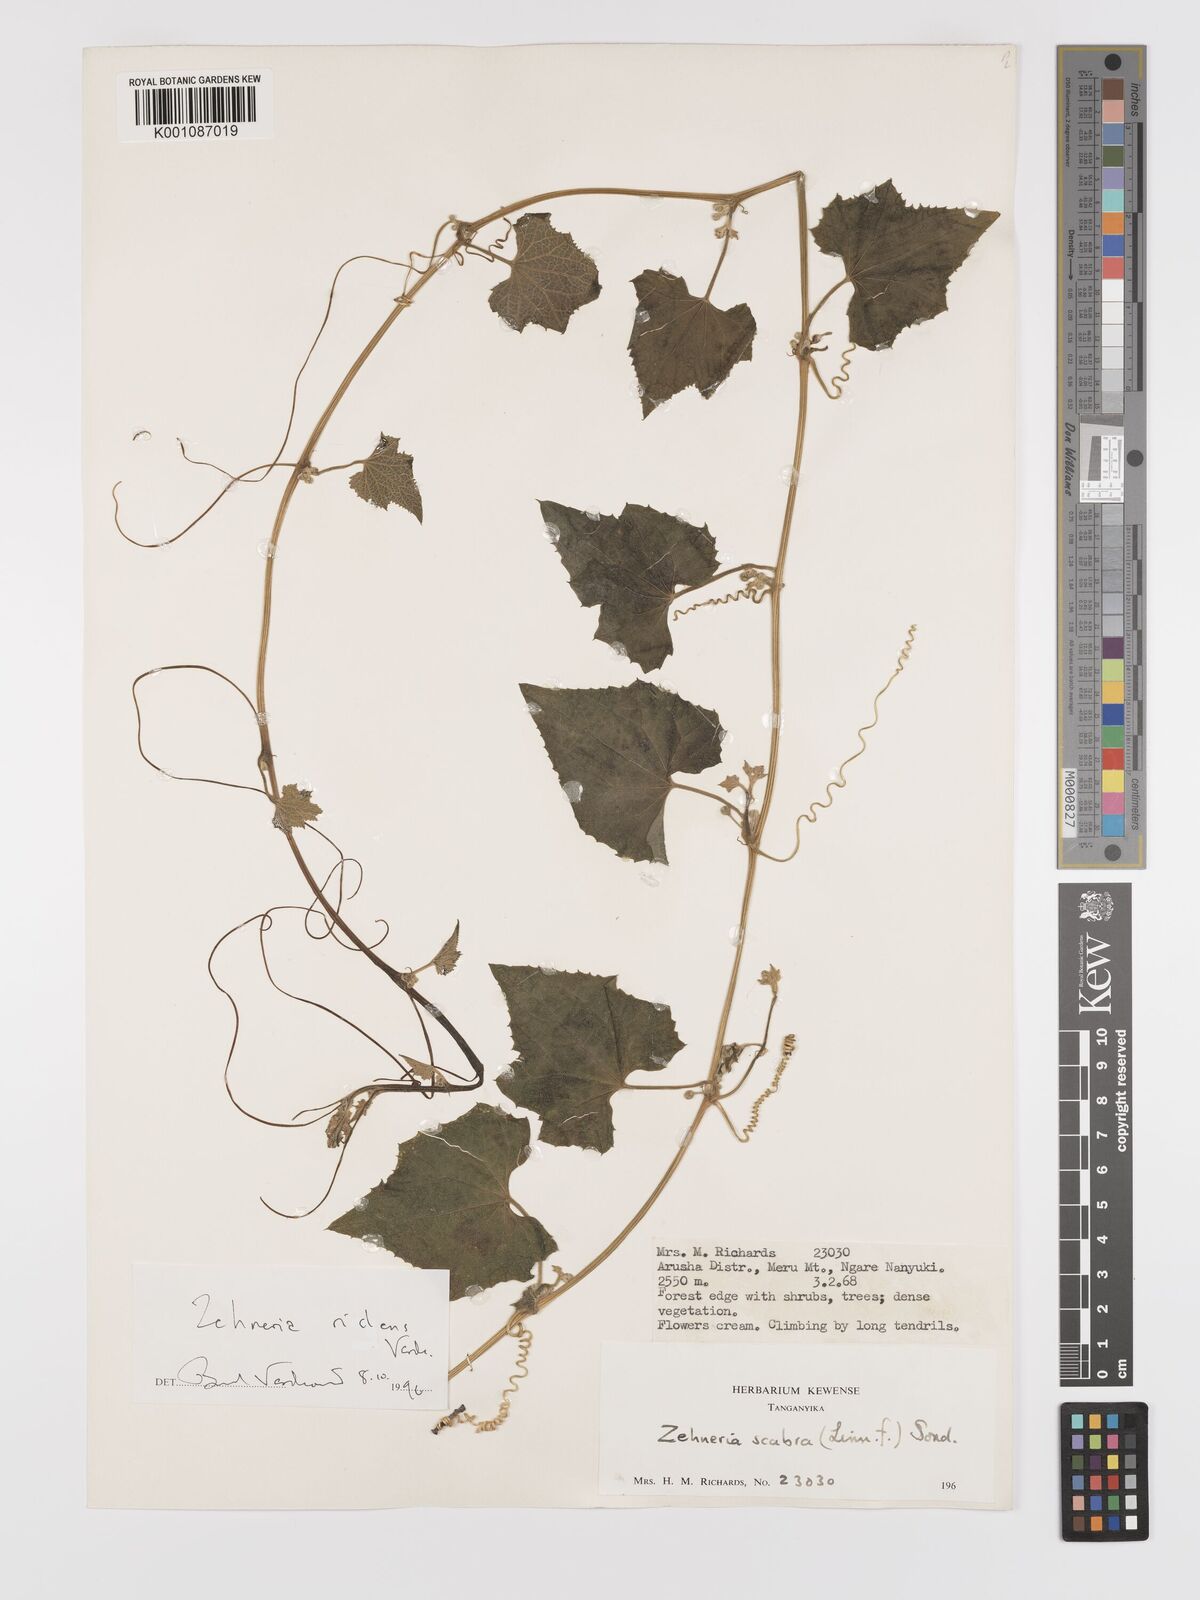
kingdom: Plantae
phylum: Tracheophyta
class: Magnoliopsida
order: Cucurbitales
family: Cucurbitaceae
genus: Zehneria
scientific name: Zehneria ridens
